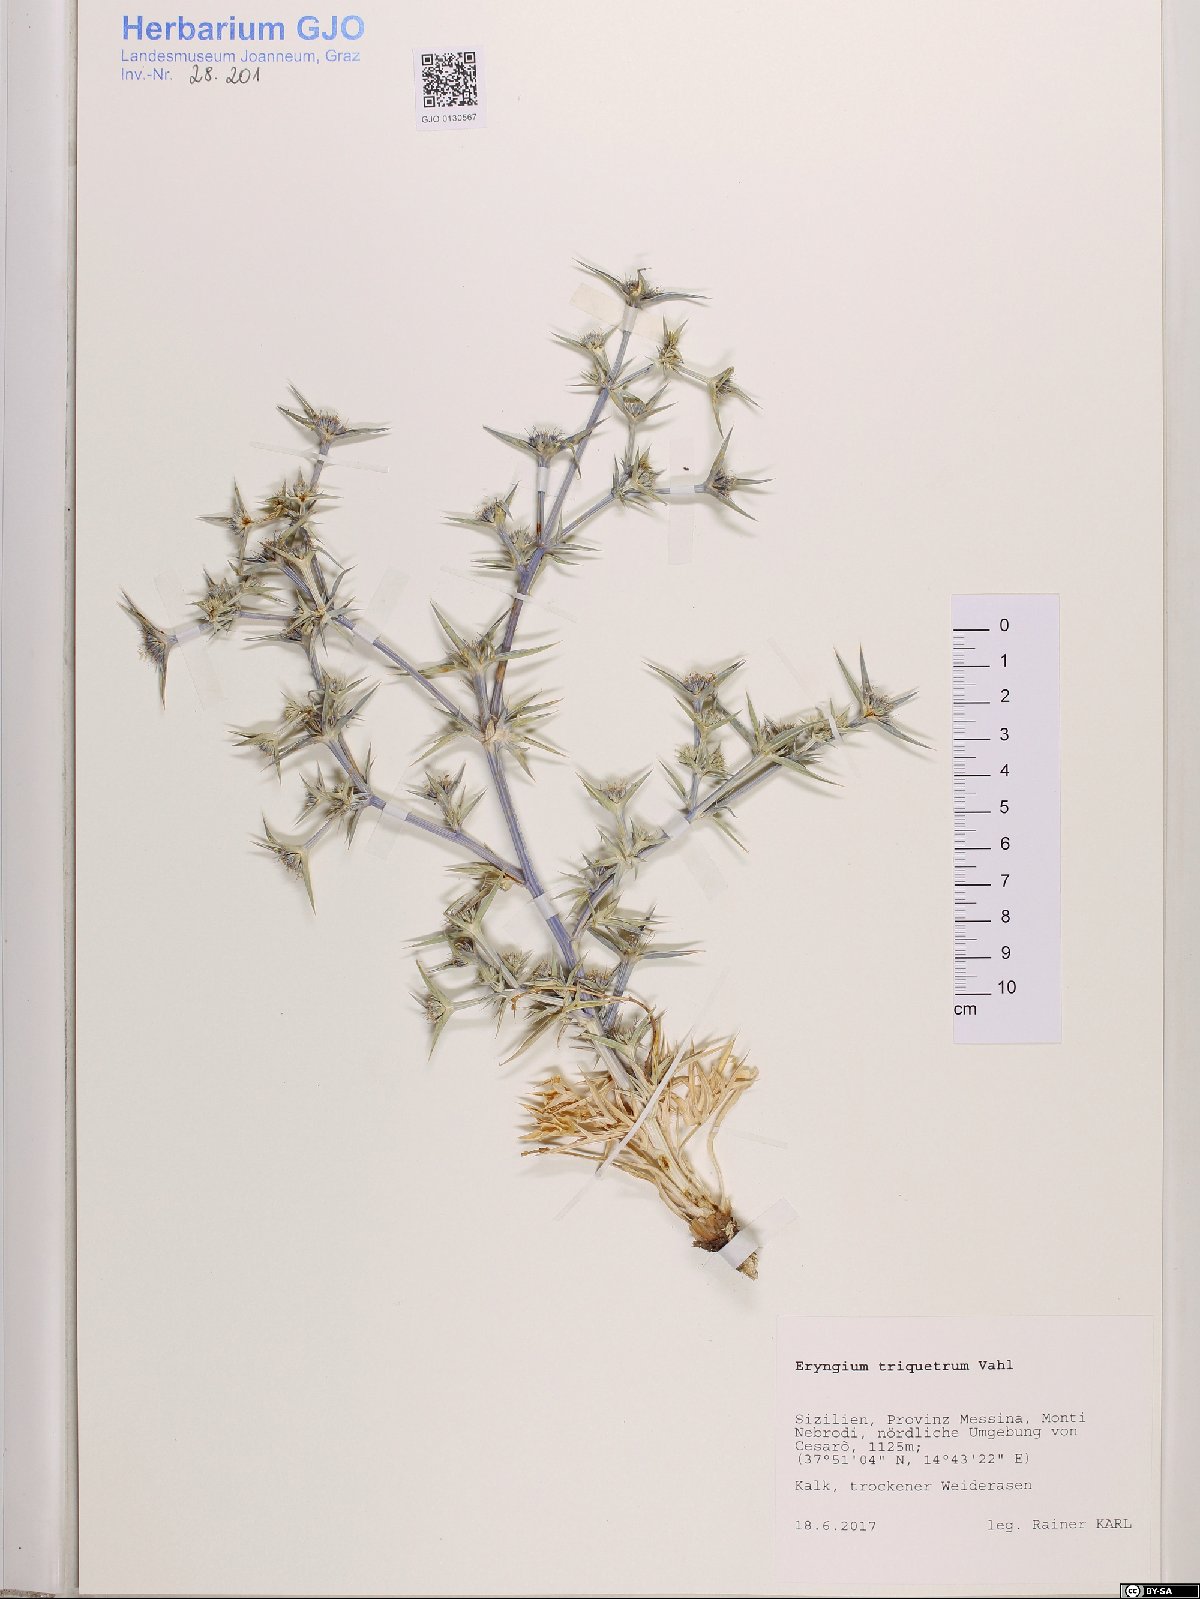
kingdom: Plantae
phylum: Tracheophyta
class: Magnoliopsida
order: Apiales
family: Apiaceae
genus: Eryngium
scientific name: Eryngium triquetrum
